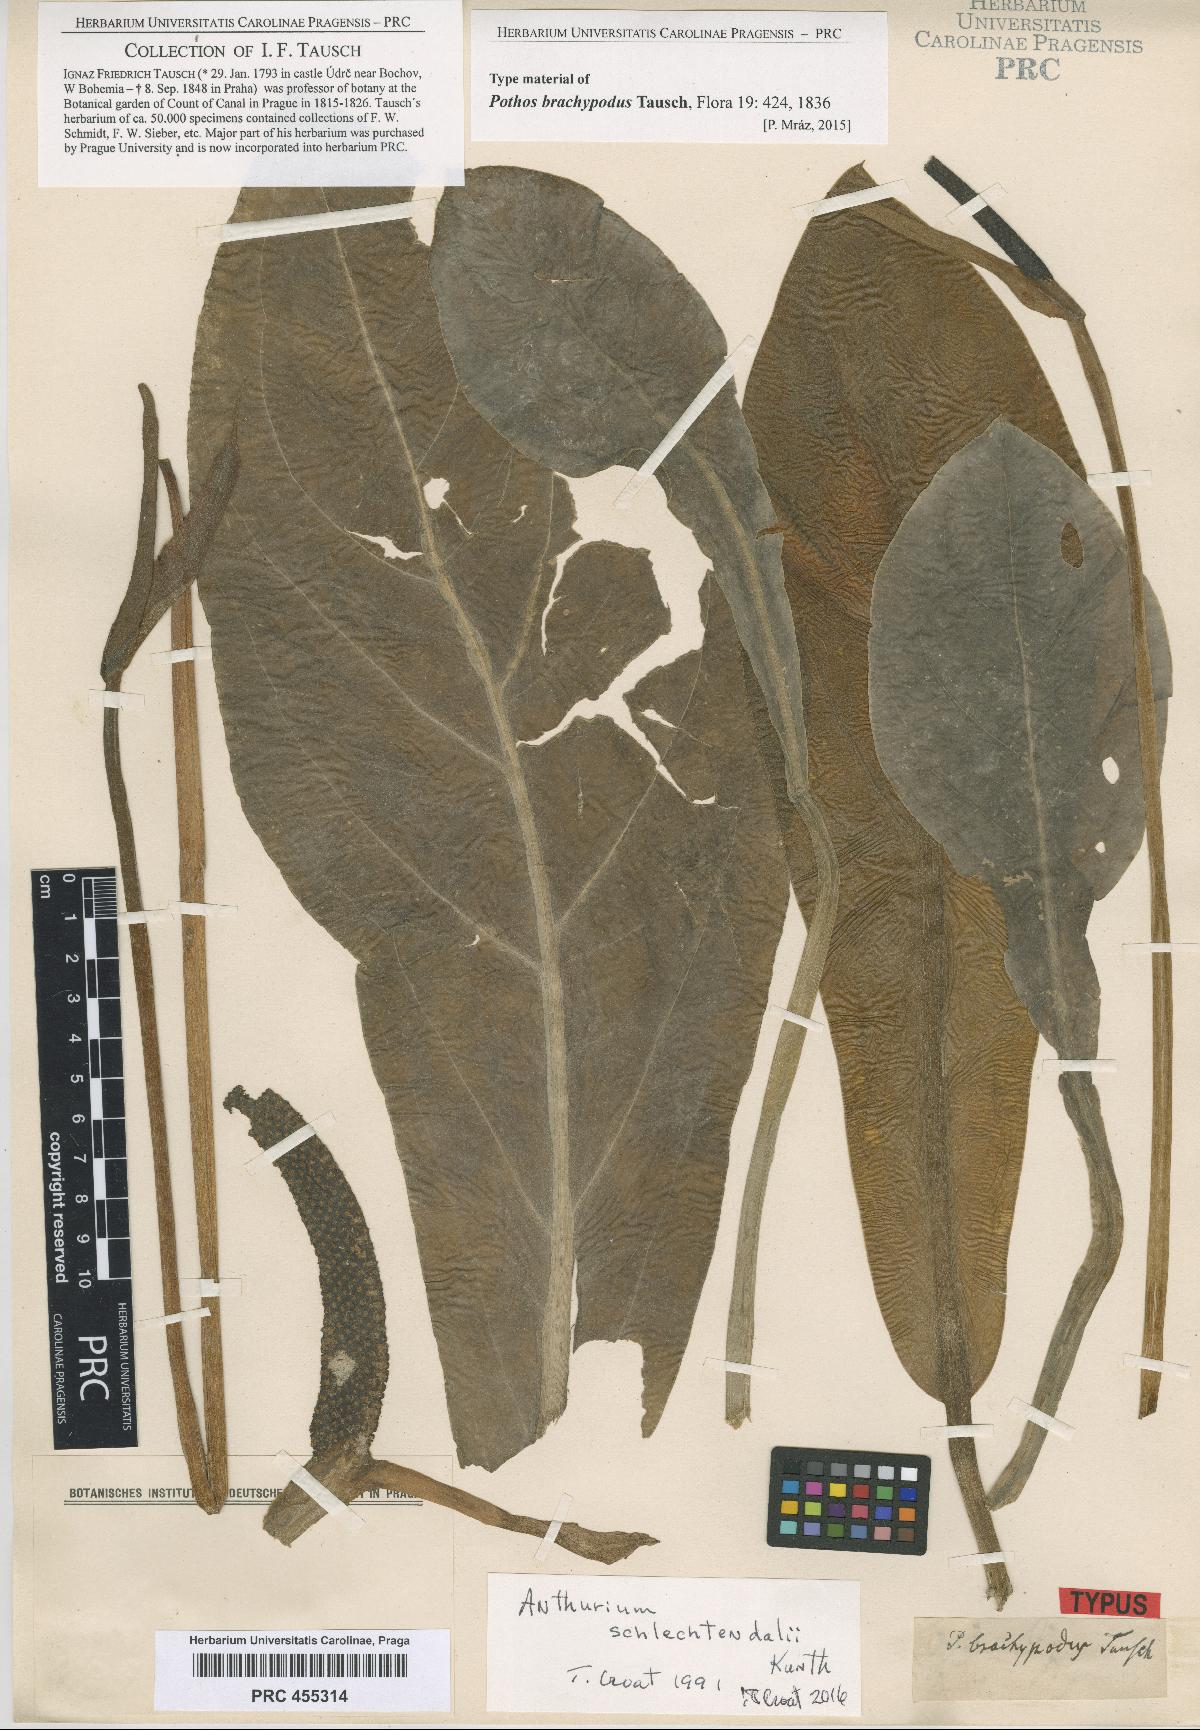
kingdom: Plantae
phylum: Tracheophyta
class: Liliopsida
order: Alismatales
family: Araceae
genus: Anthurium
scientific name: Anthurium acaule
